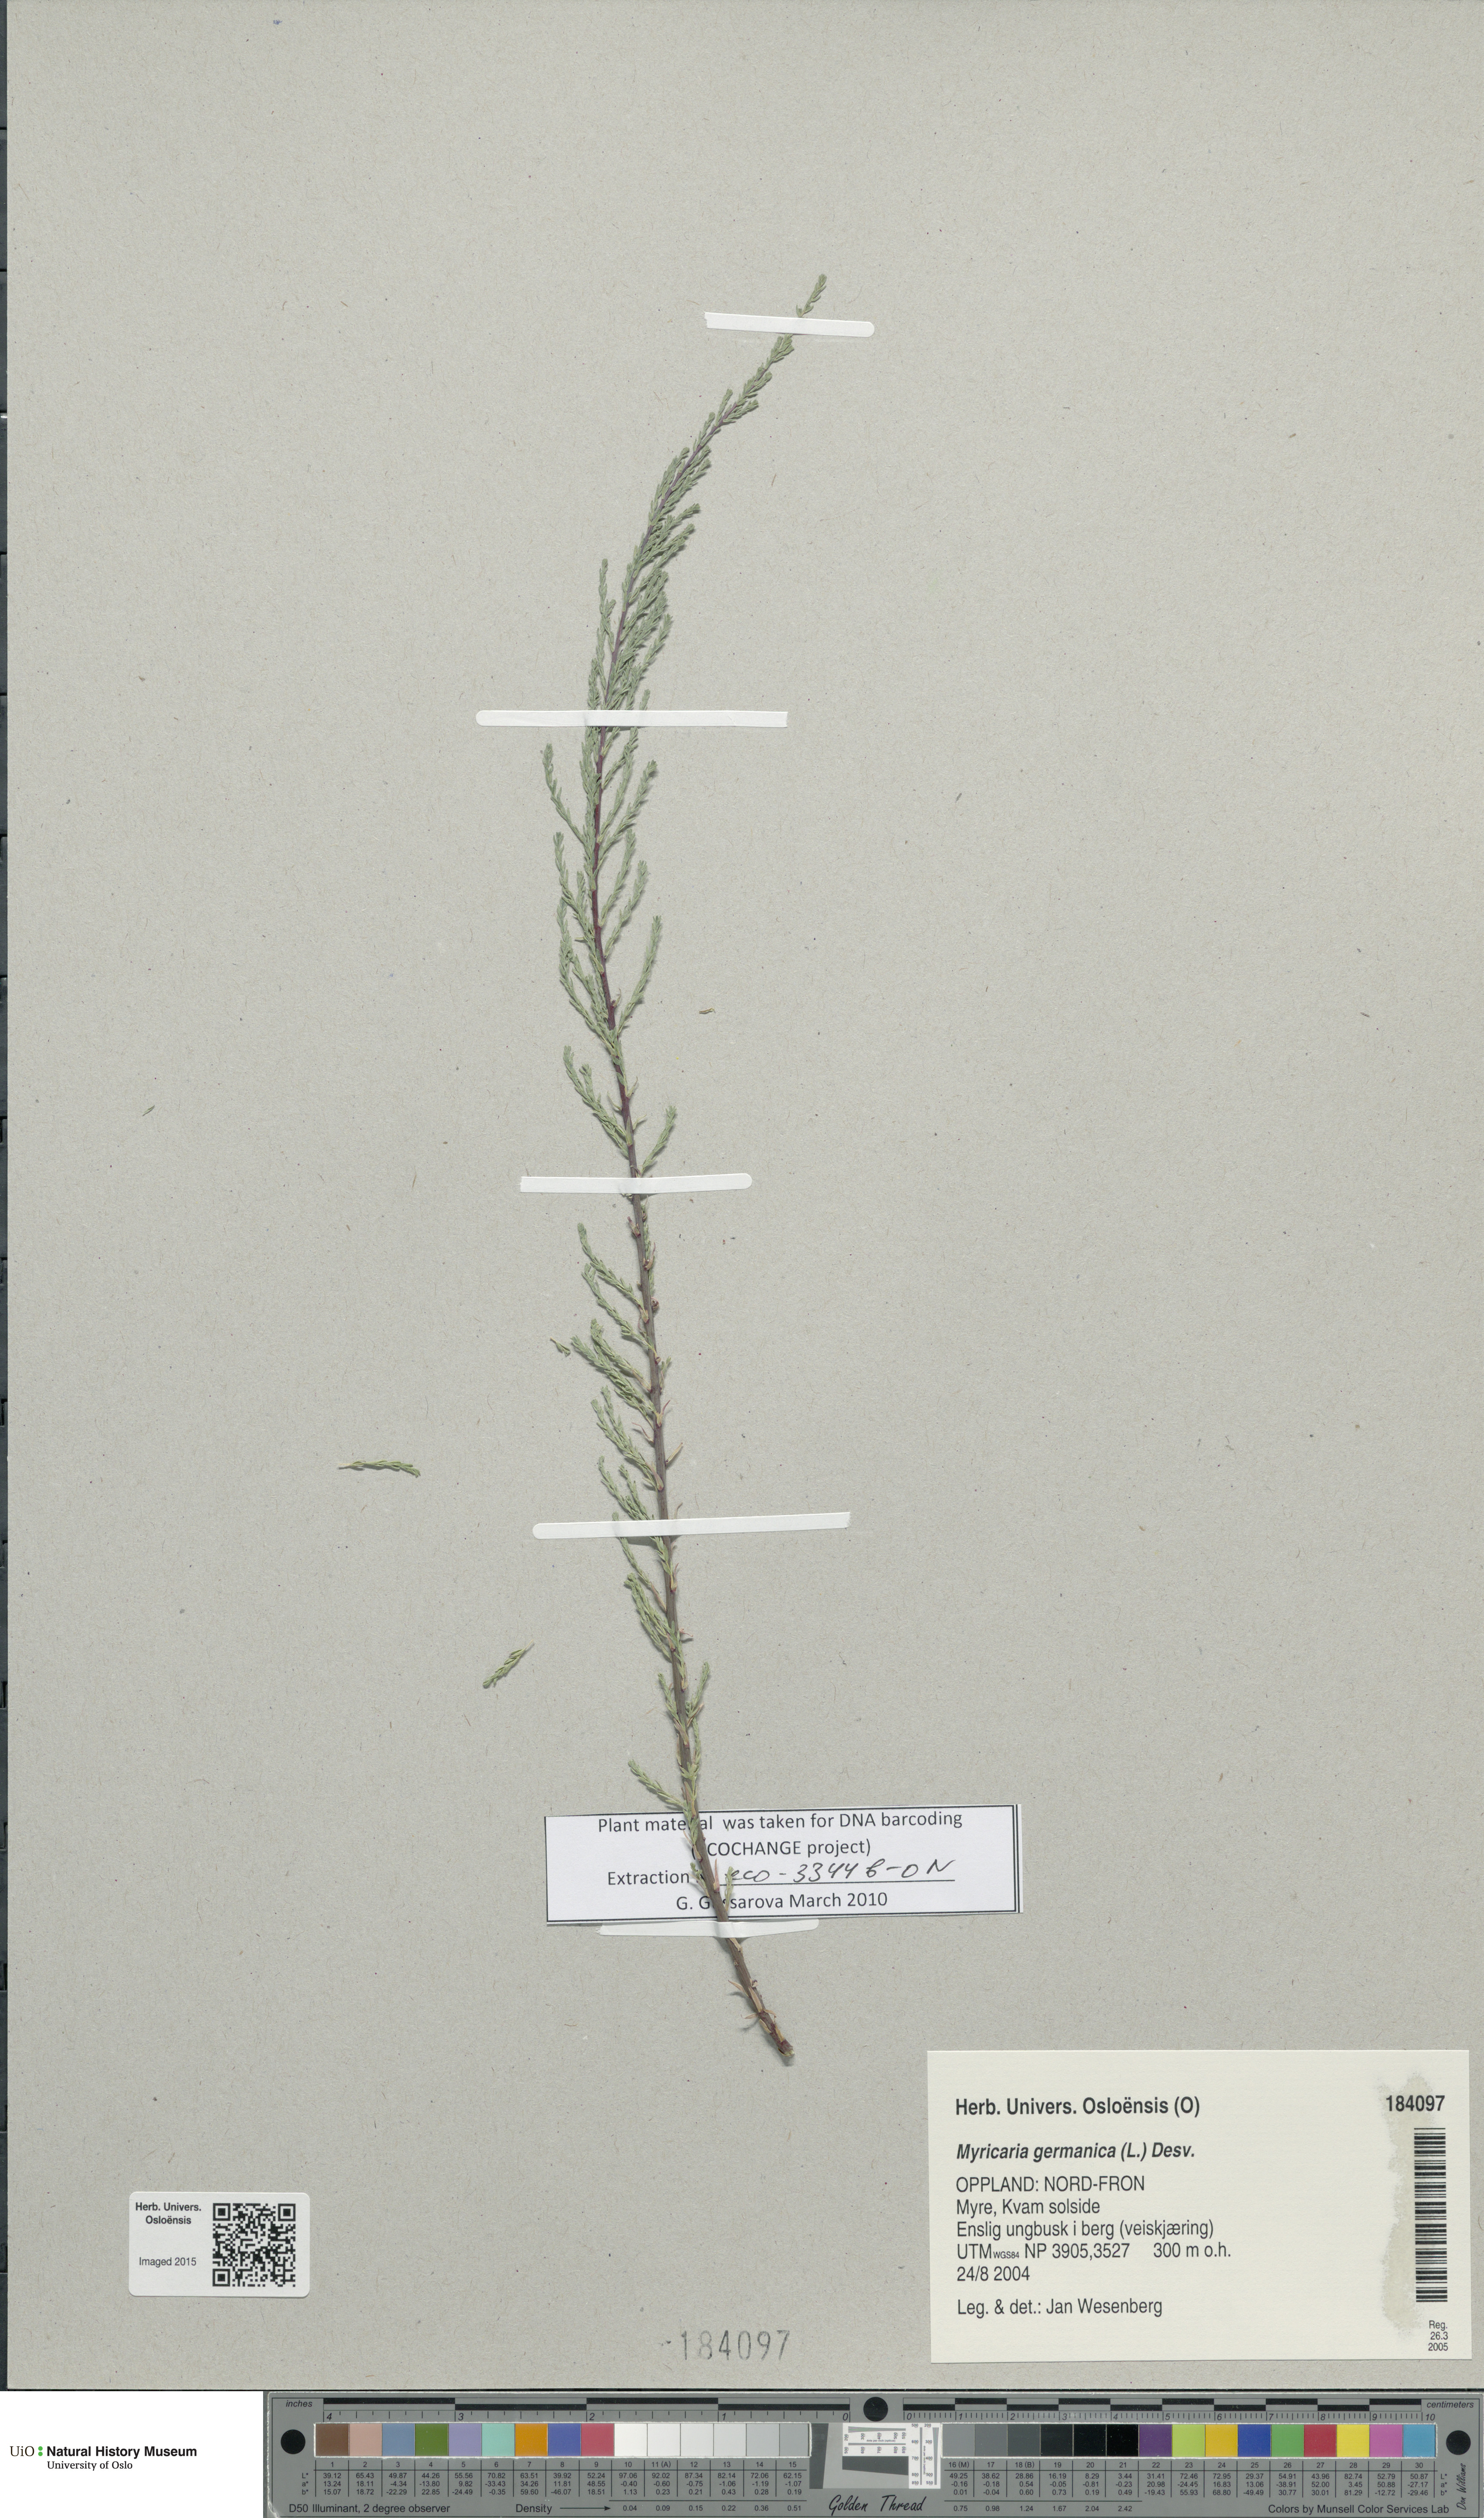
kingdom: Plantae
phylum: Tracheophyta
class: Magnoliopsida
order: Caryophyllales
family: Tamaricaceae
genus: Myricaria
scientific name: Myricaria germanica
